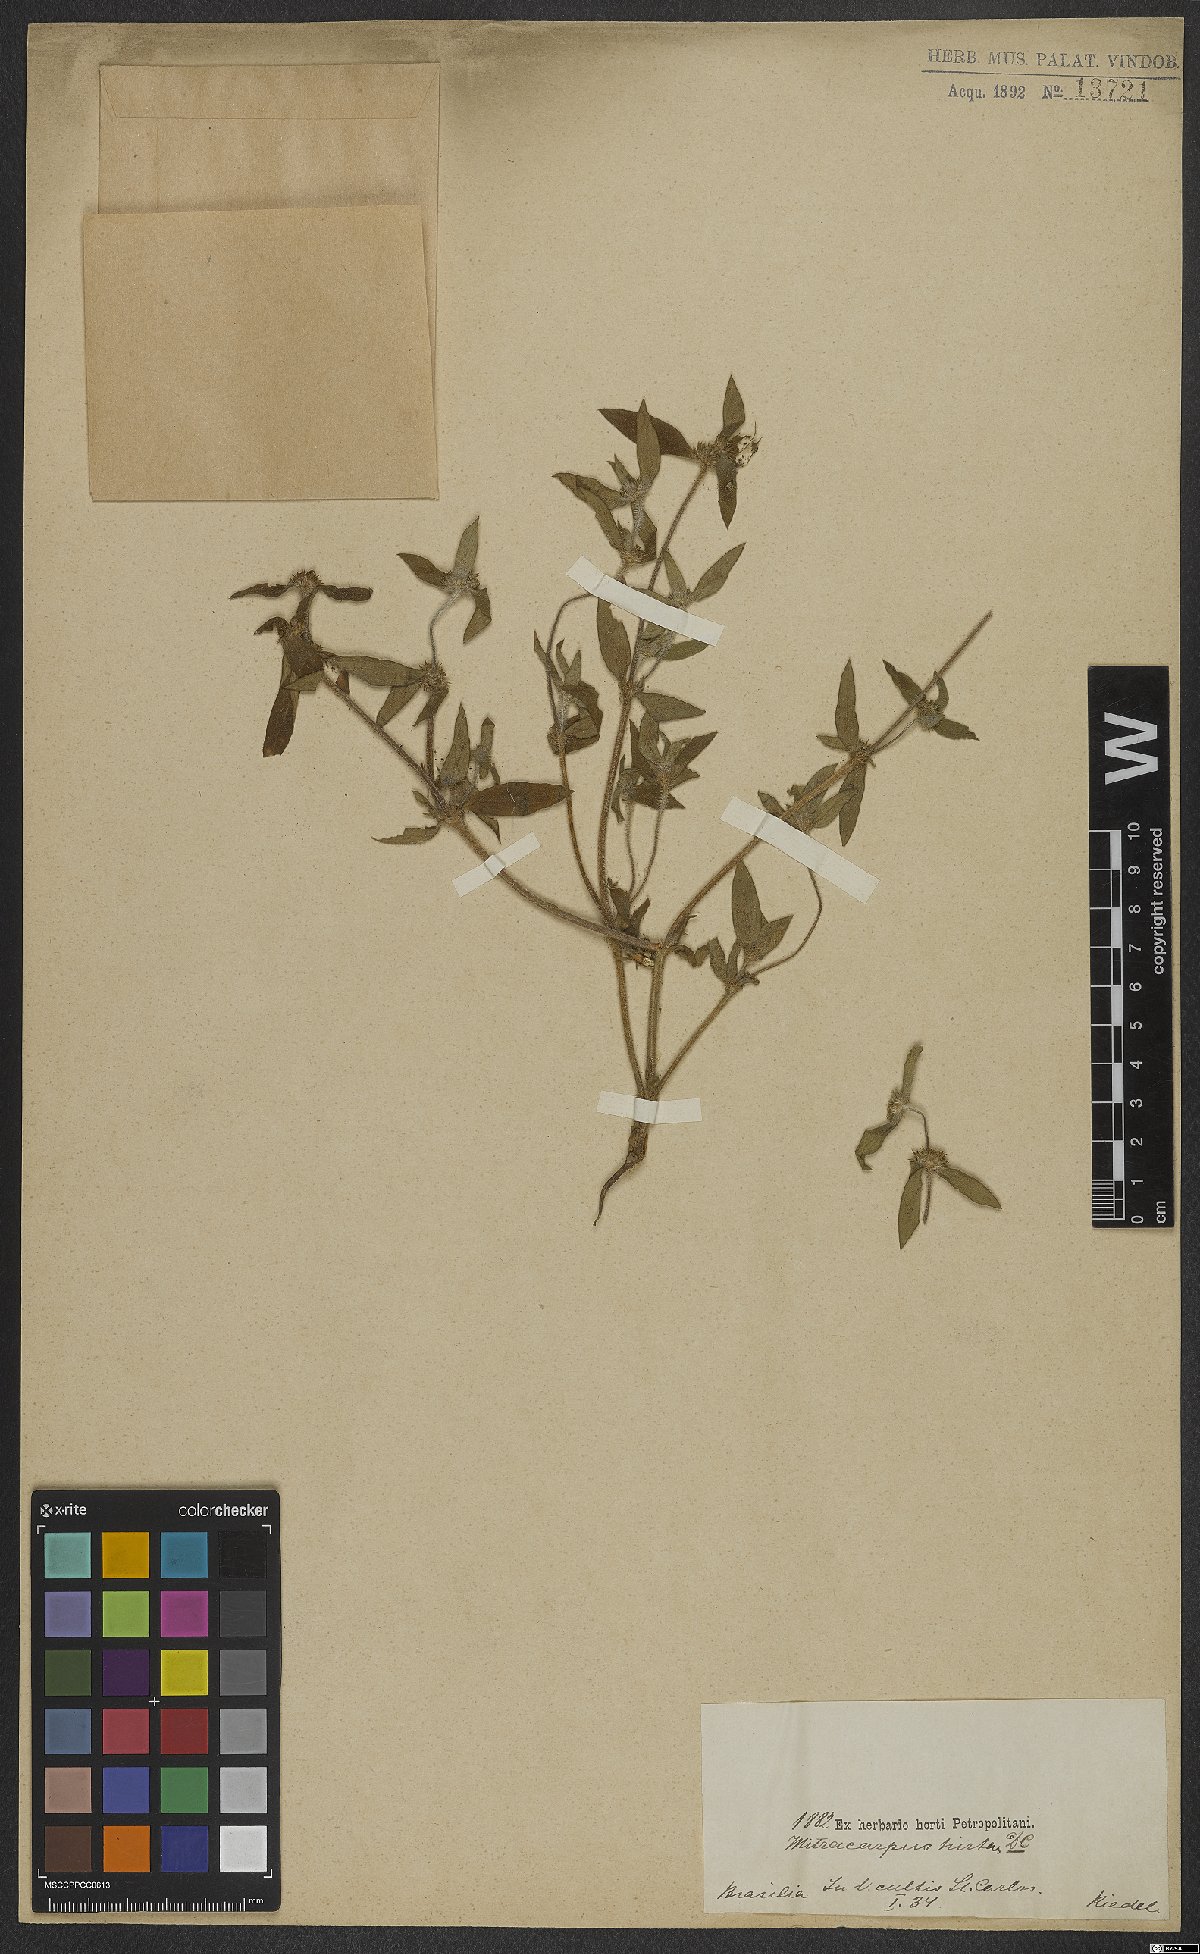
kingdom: Plantae
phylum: Tracheophyta
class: Magnoliopsida
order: Gentianales
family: Rubiaceae
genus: Mitracarpus
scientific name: Mitracarpus hirtus
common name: Tropical girdlepod
